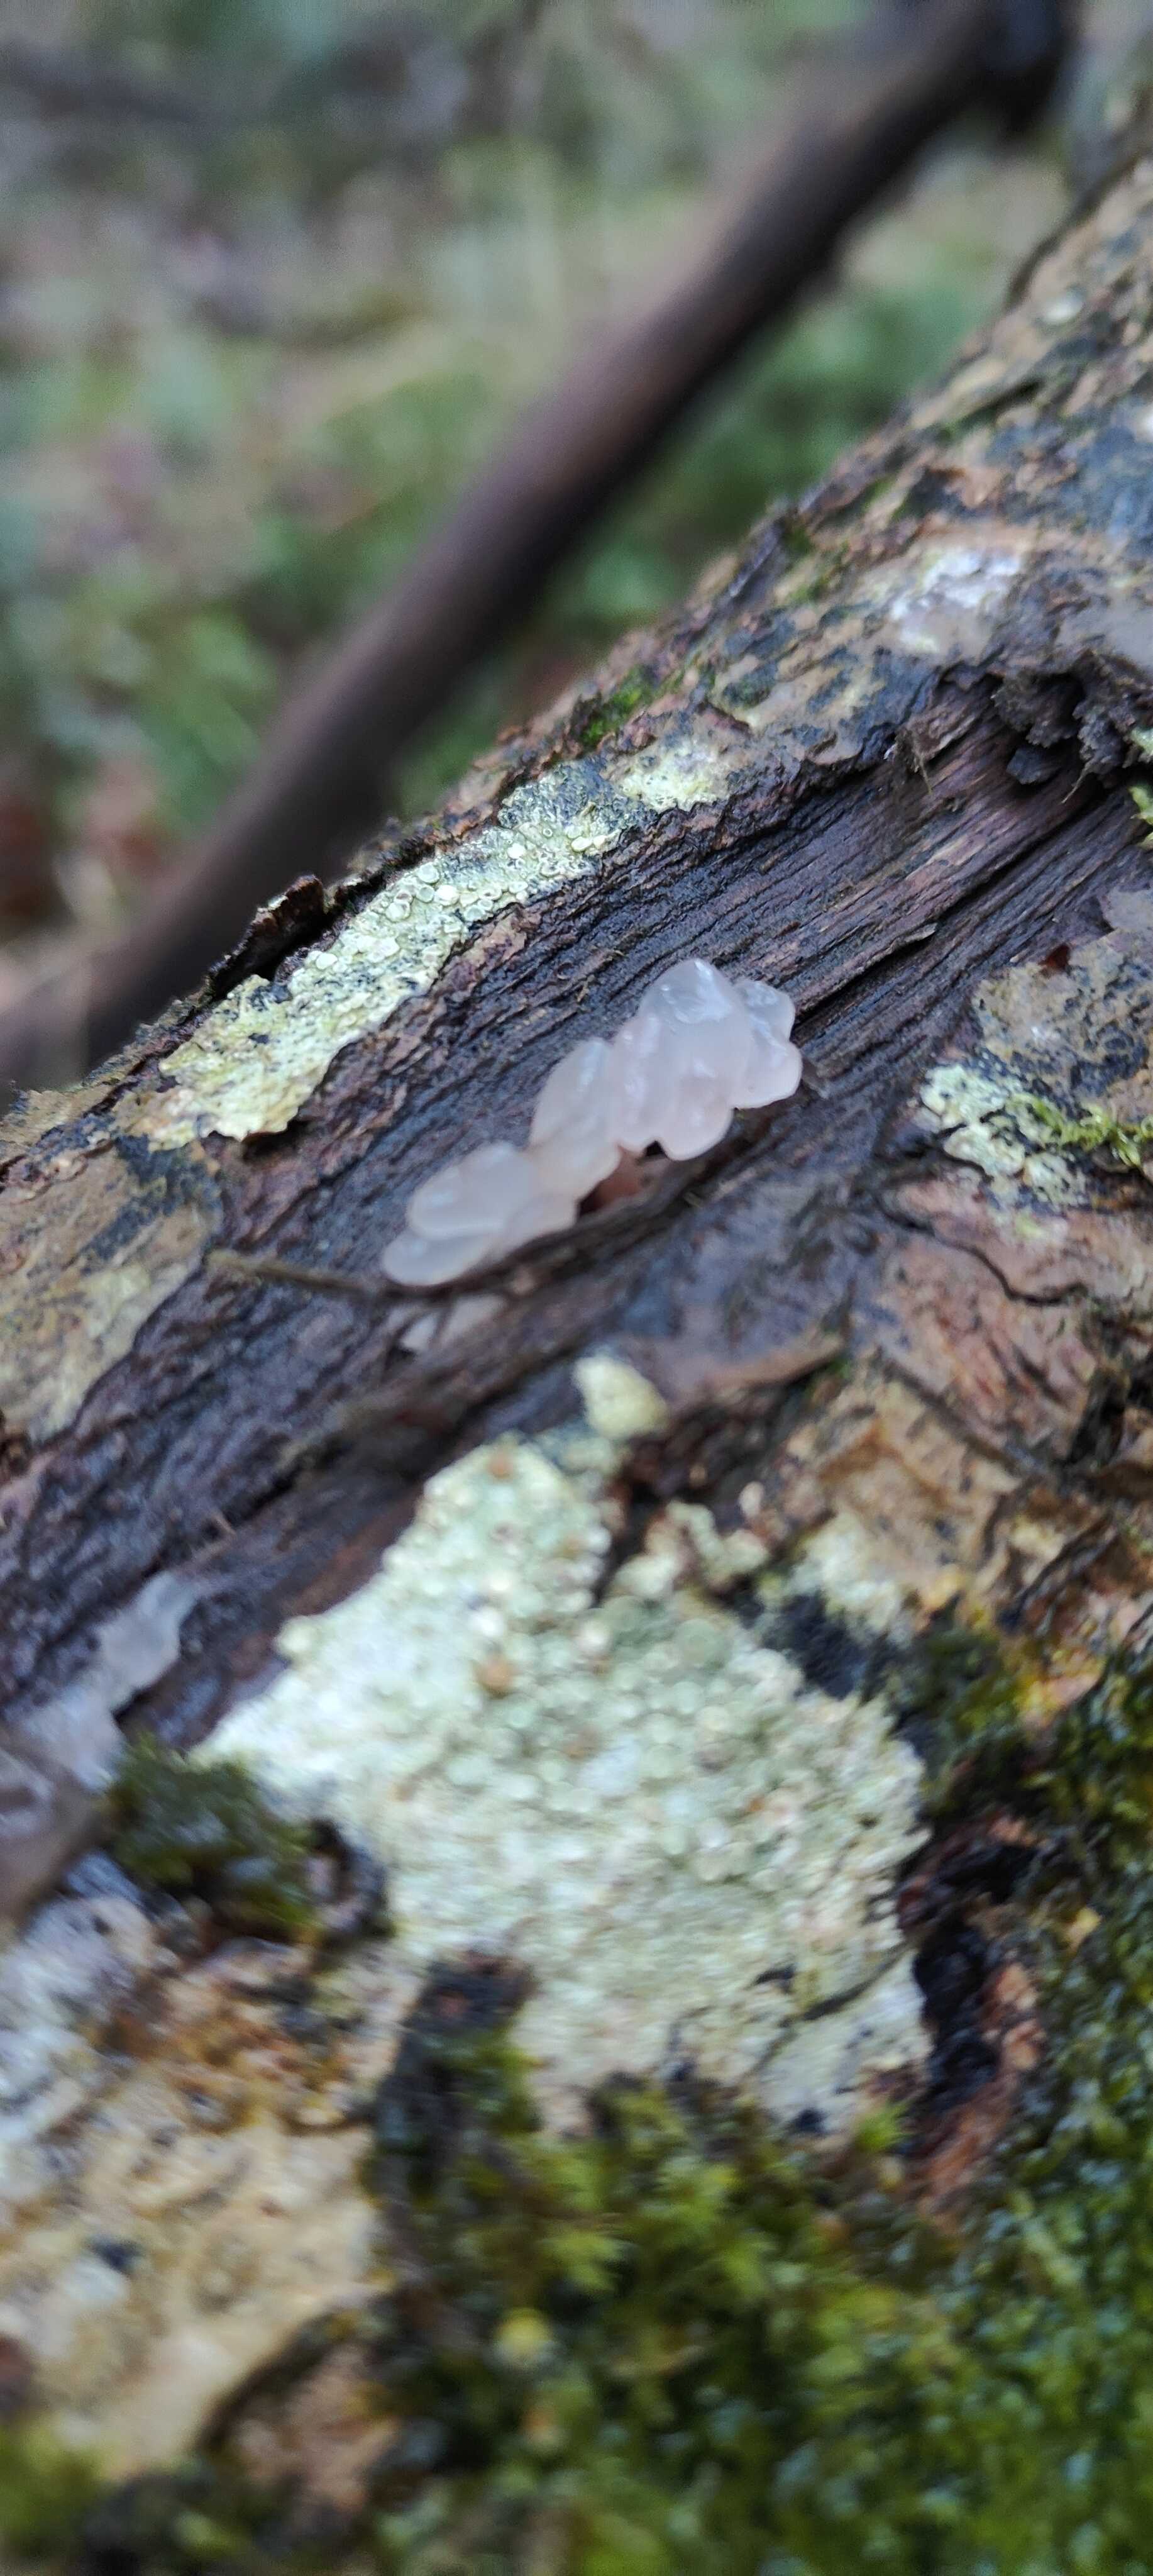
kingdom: Fungi
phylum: Basidiomycota
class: Agaricomycetes
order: Auriculariales
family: Hyaloriaceae
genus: Myxarium
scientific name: Myxarium
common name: bævretop
